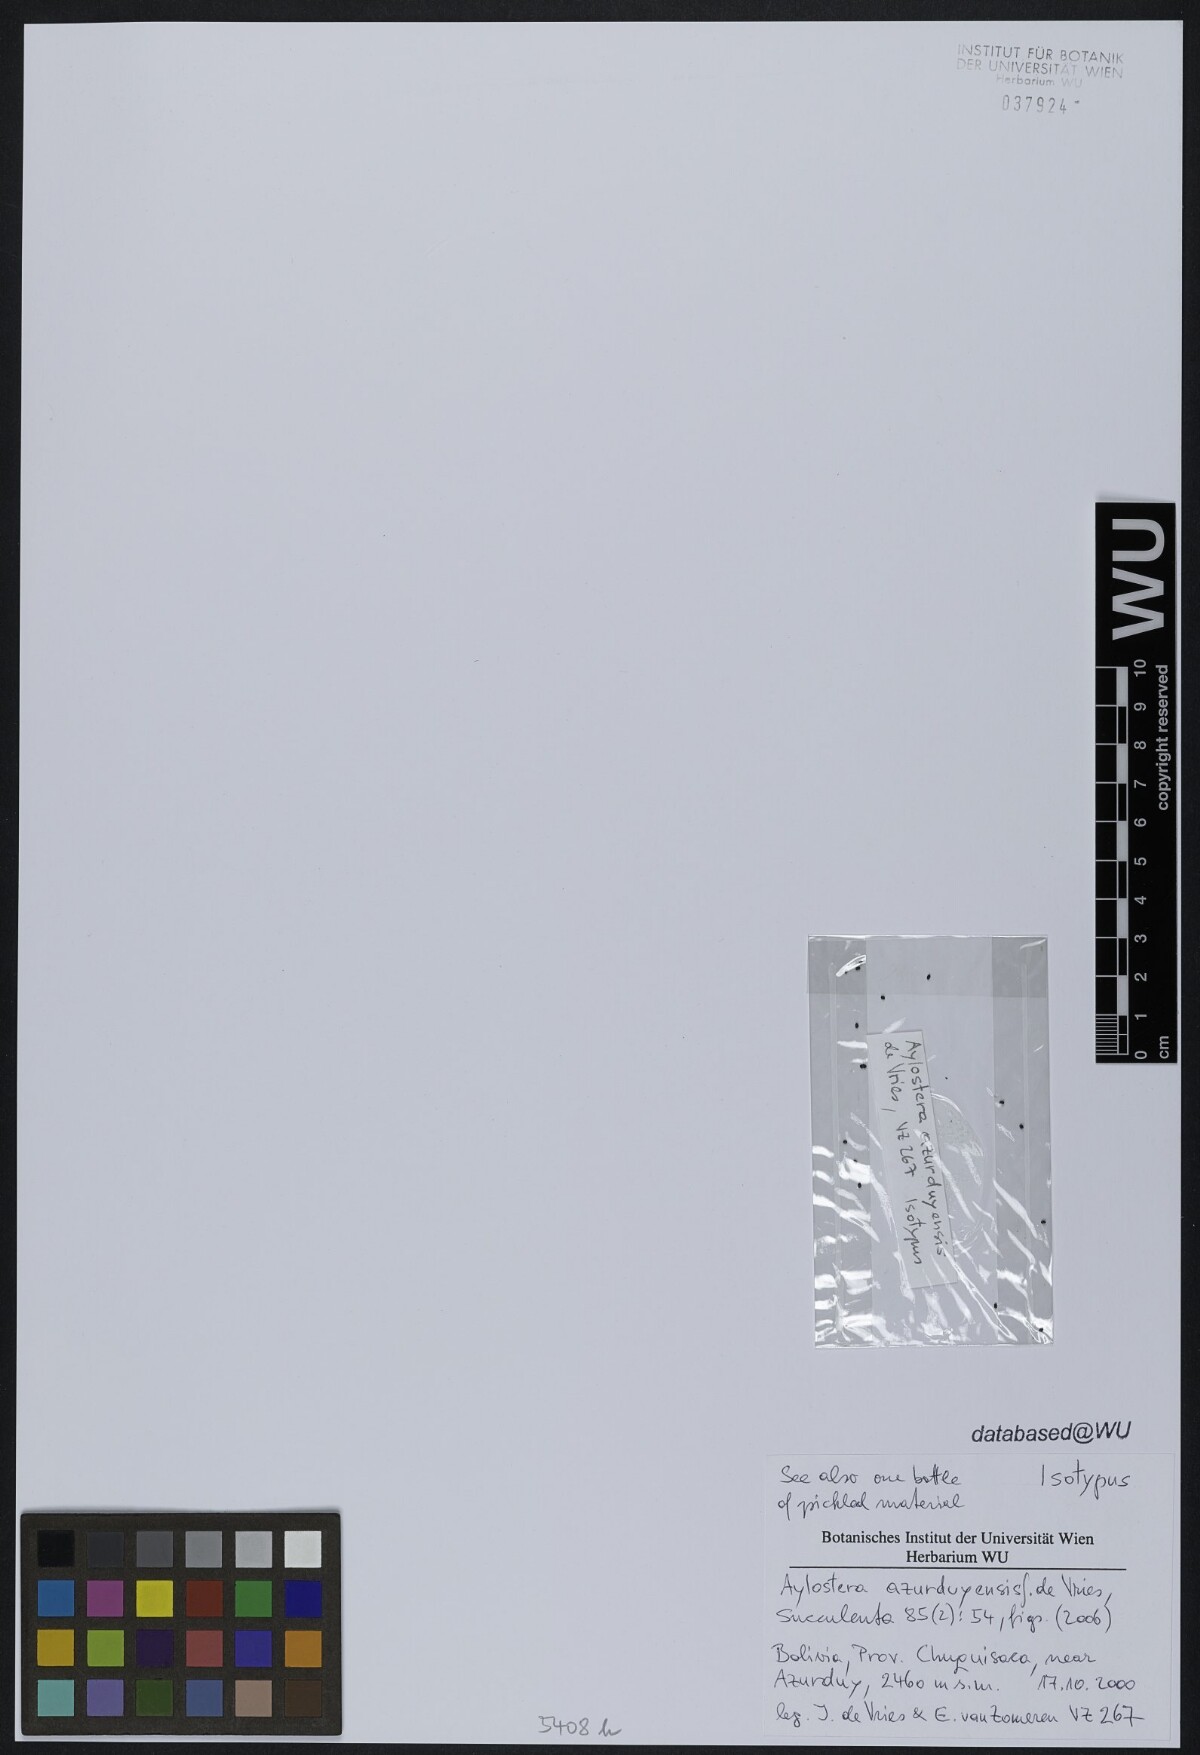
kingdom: Plantae
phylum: Tracheophyta
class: Magnoliopsida
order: Caryophyllales
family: Cactaceae
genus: Aylostera
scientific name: Aylostera azurduyensis
